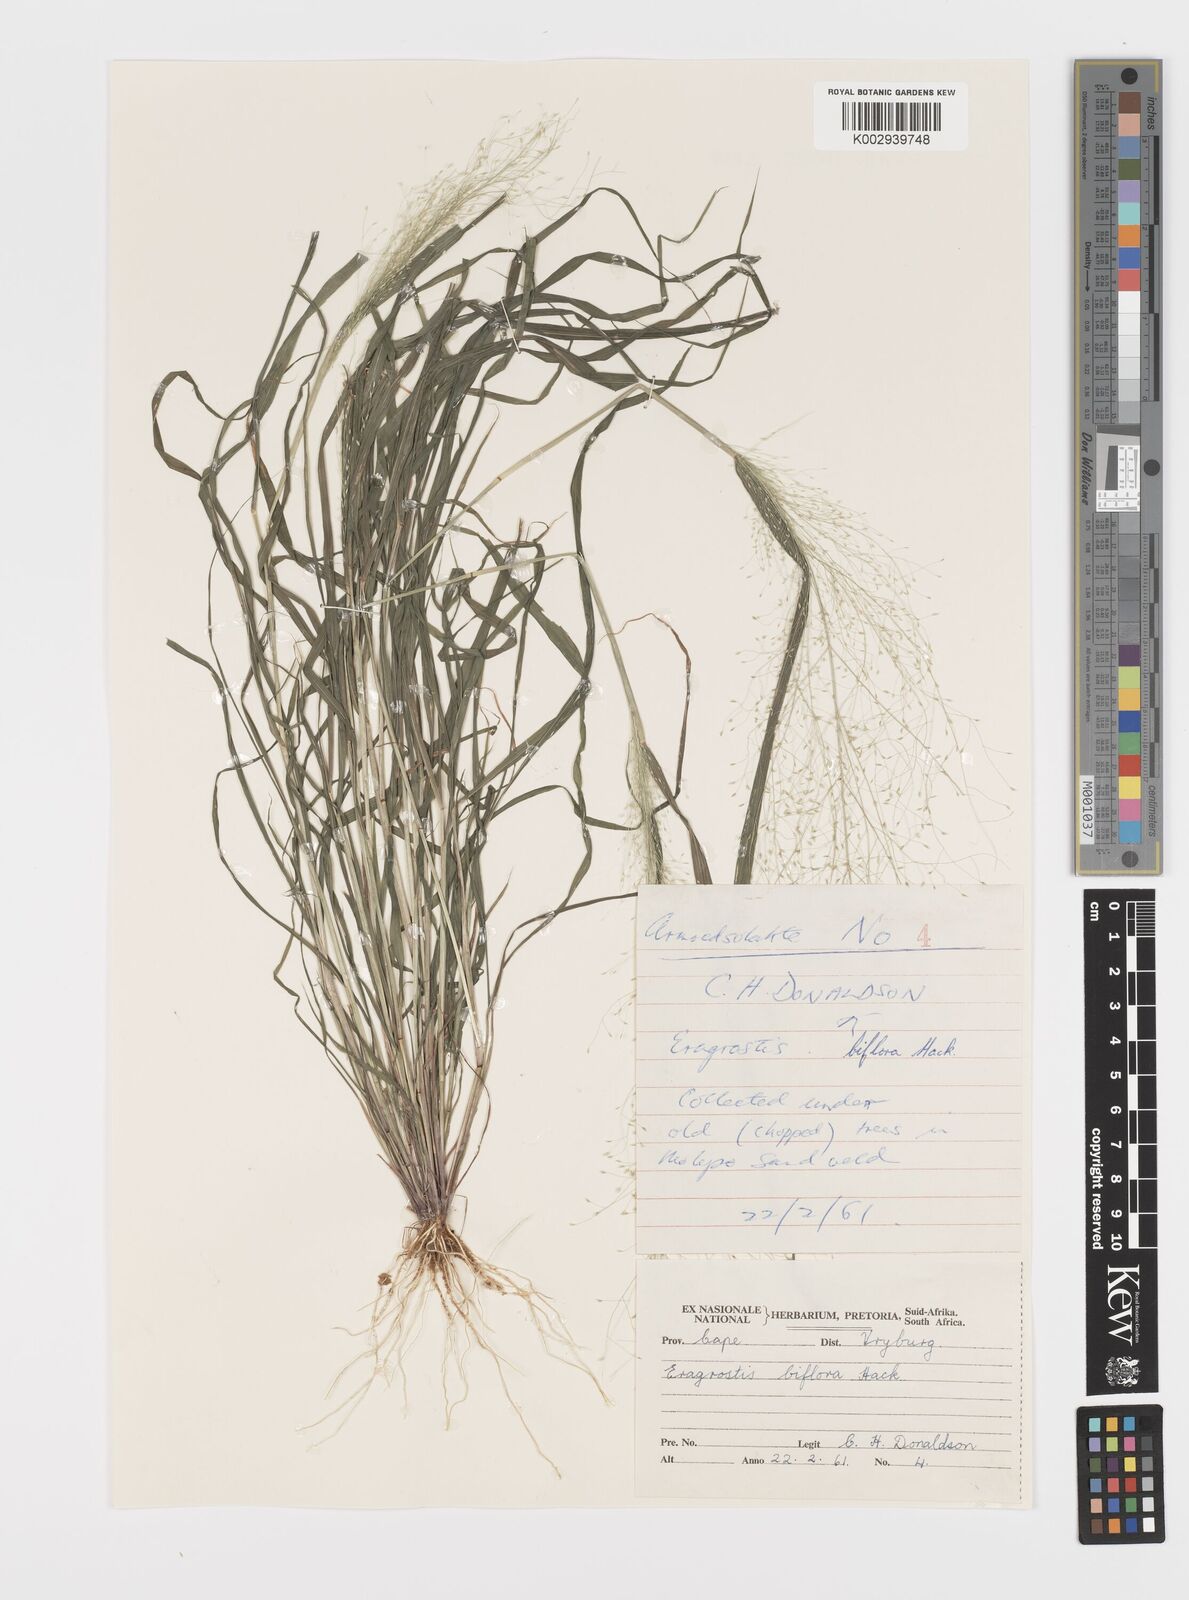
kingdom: Plantae
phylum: Tracheophyta
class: Liliopsida
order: Poales
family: Poaceae
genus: Eragrostis
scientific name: Eragrostis biflora
